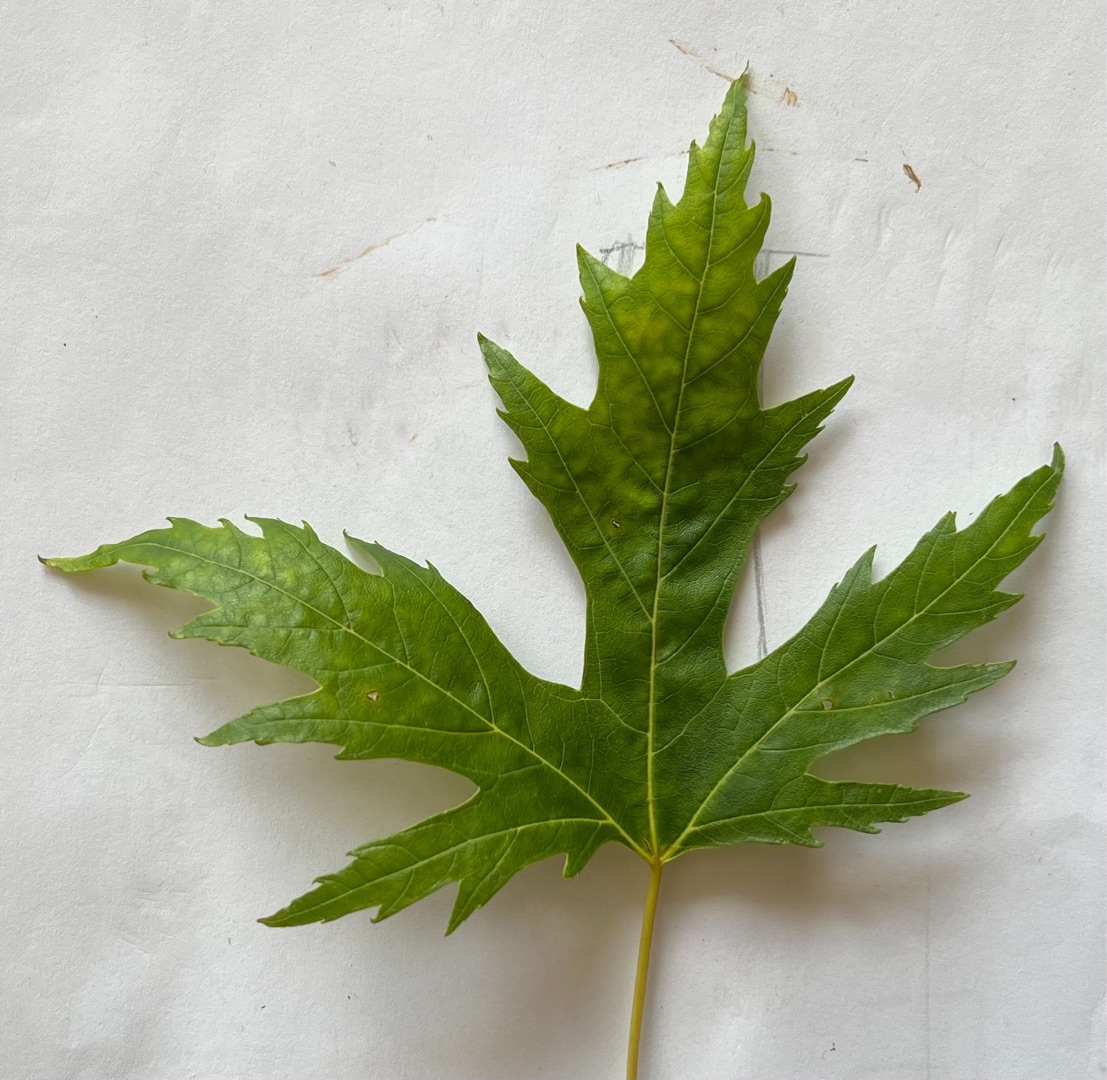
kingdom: Plantae
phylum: Tracheophyta
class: Magnoliopsida
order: Sapindales
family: Sapindaceae
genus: Acer
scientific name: Acer saccharinum
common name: Sølv-løn
